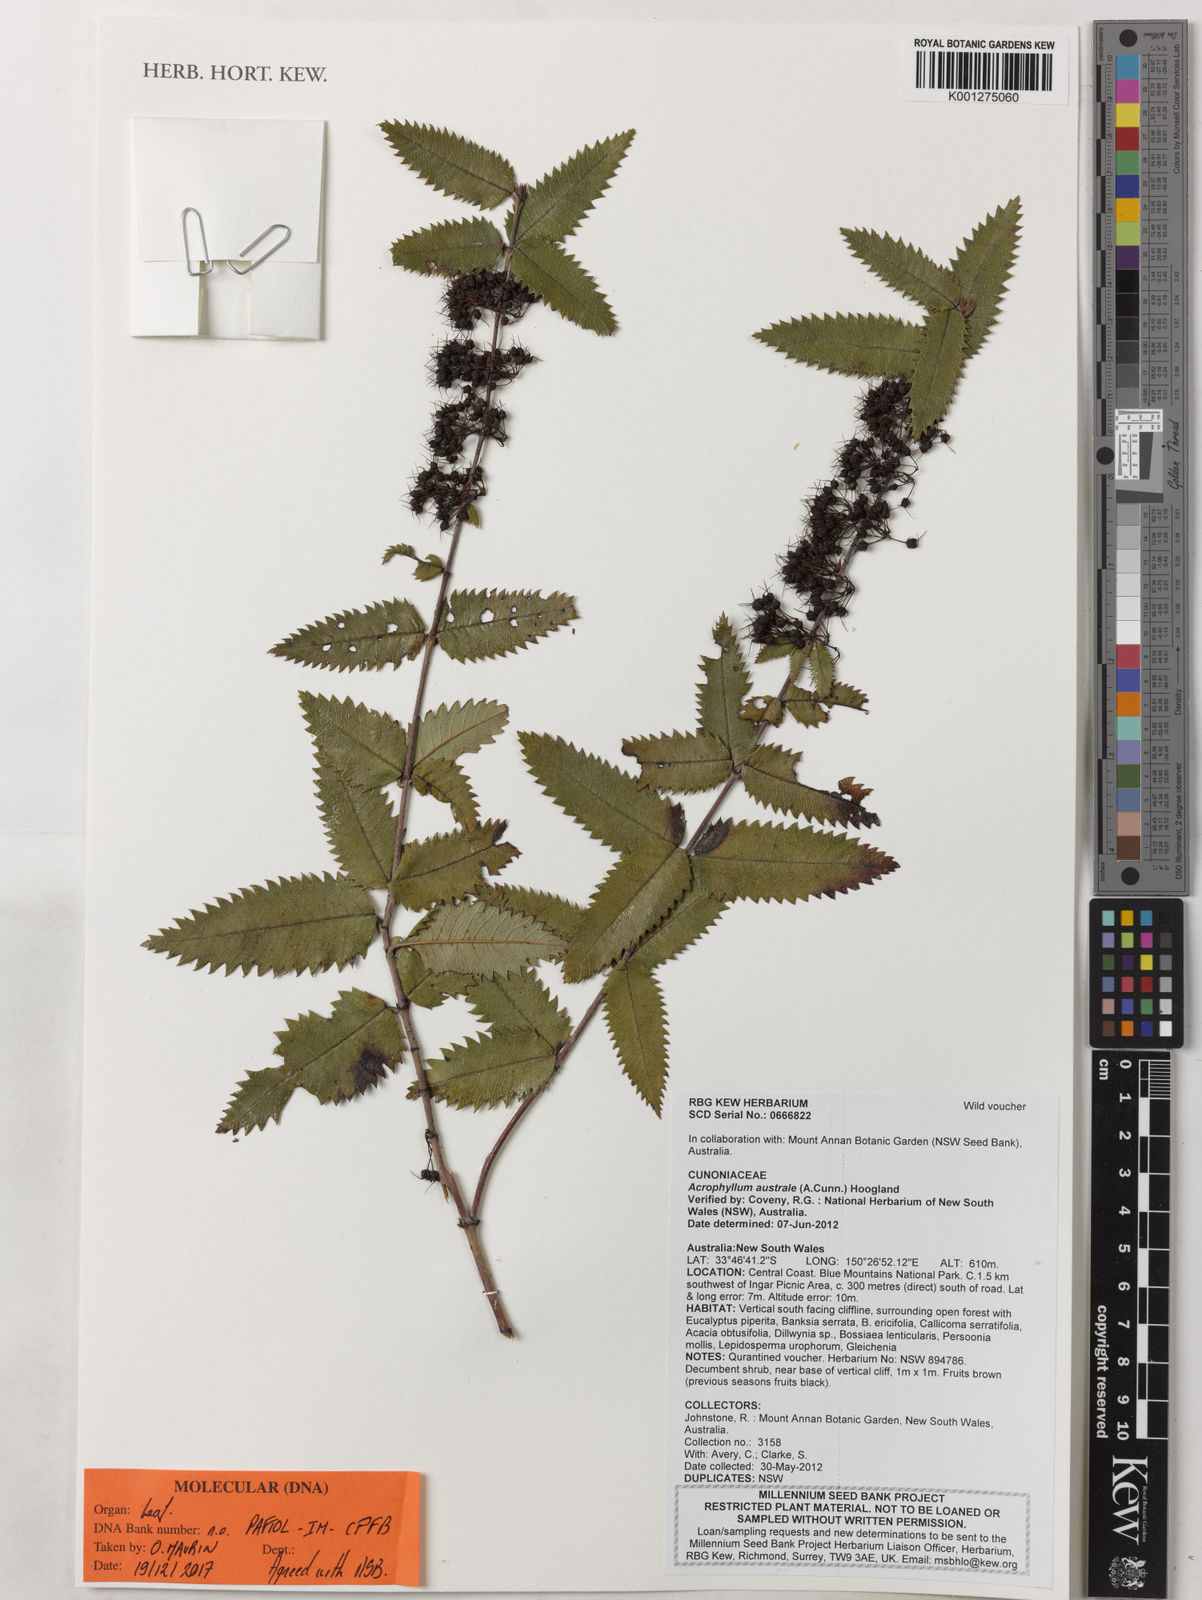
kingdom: Plantae
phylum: Tracheophyta
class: Magnoliopsida
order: Oxalidales
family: Cunoniaceae
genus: Acrophyllum
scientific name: Acrophyllum australe
